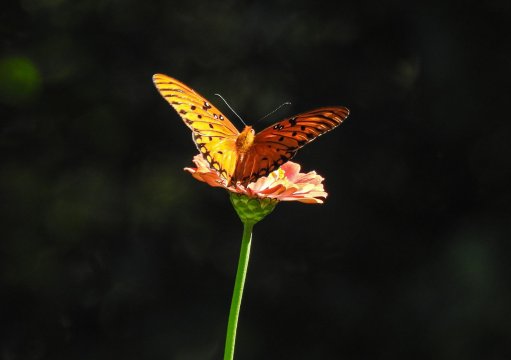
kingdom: Animalia
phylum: Arthropoda
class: Insecta
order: Lepidoptera
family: Nymphalidae
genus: Dione
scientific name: Dione vanillae
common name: Gulf Fritillary
